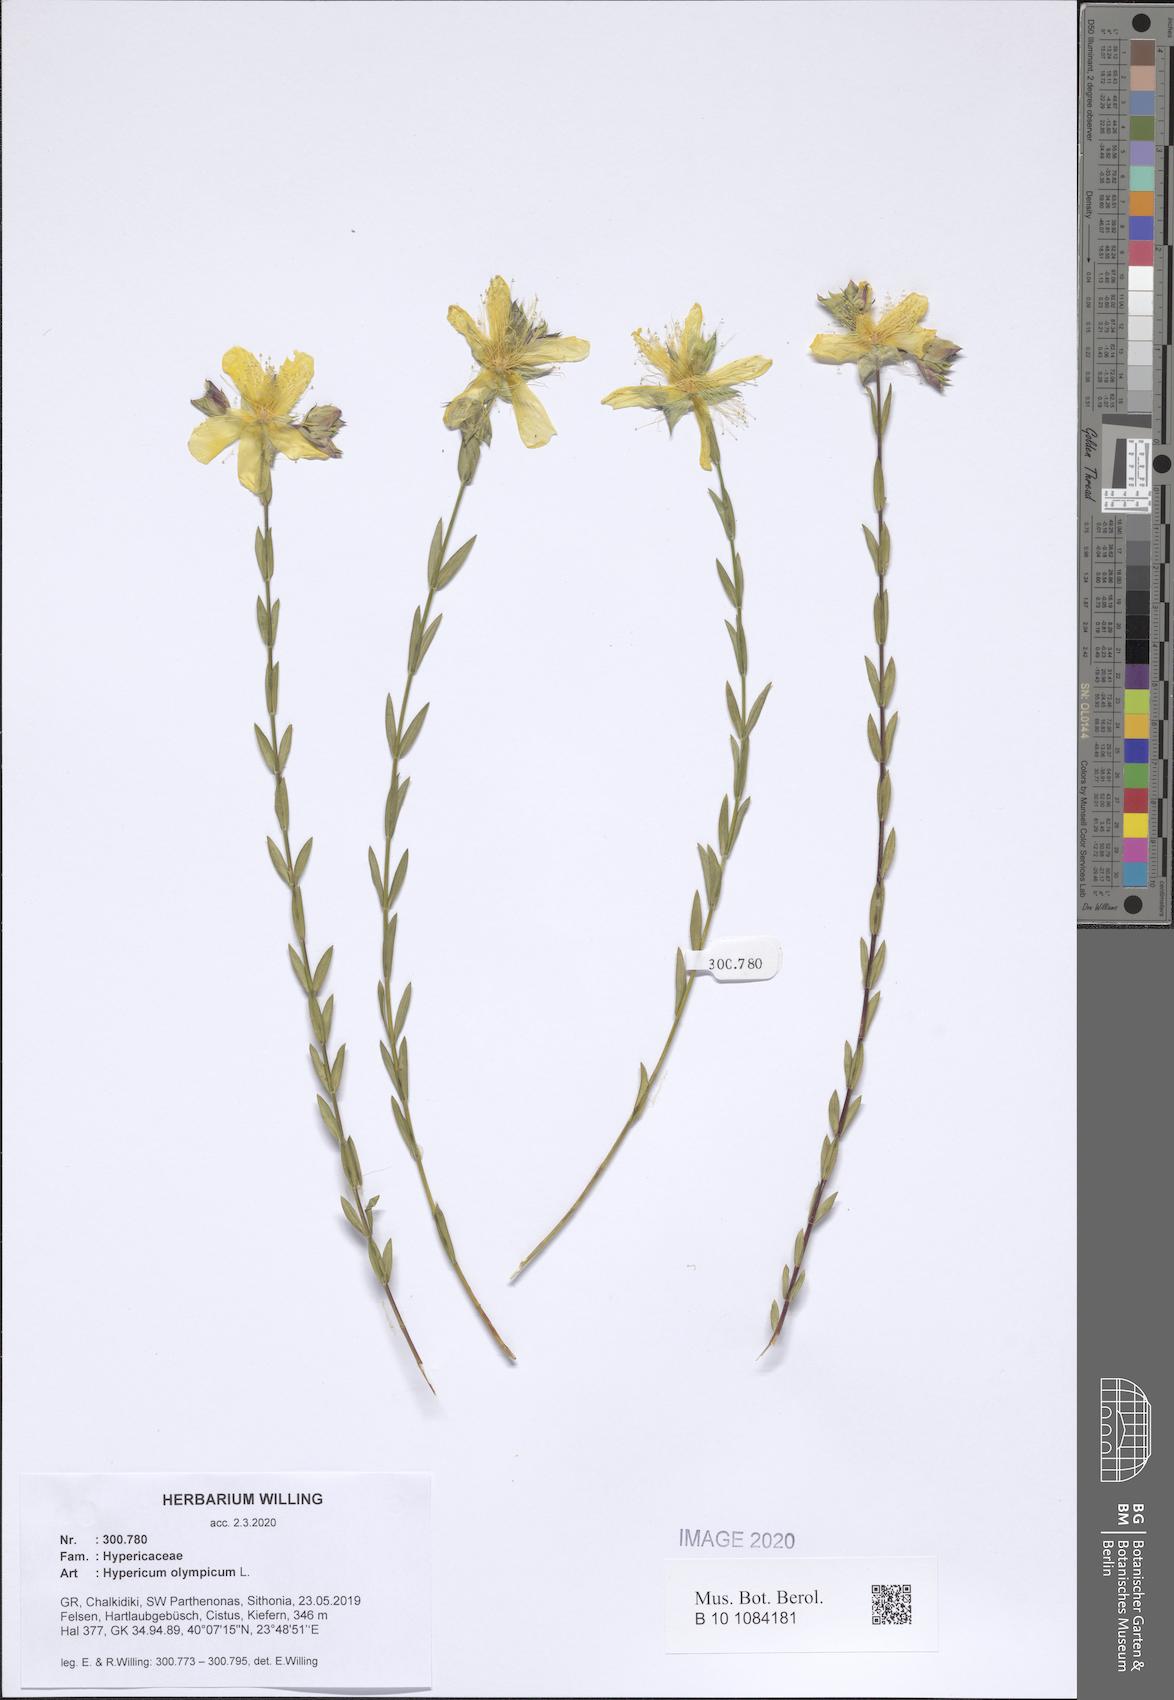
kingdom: Plantae
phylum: Tracheophyta
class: Magnoliopsida
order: Malpighiales
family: Hypericaceae
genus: Hypericum
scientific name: Hypericum olympicum
